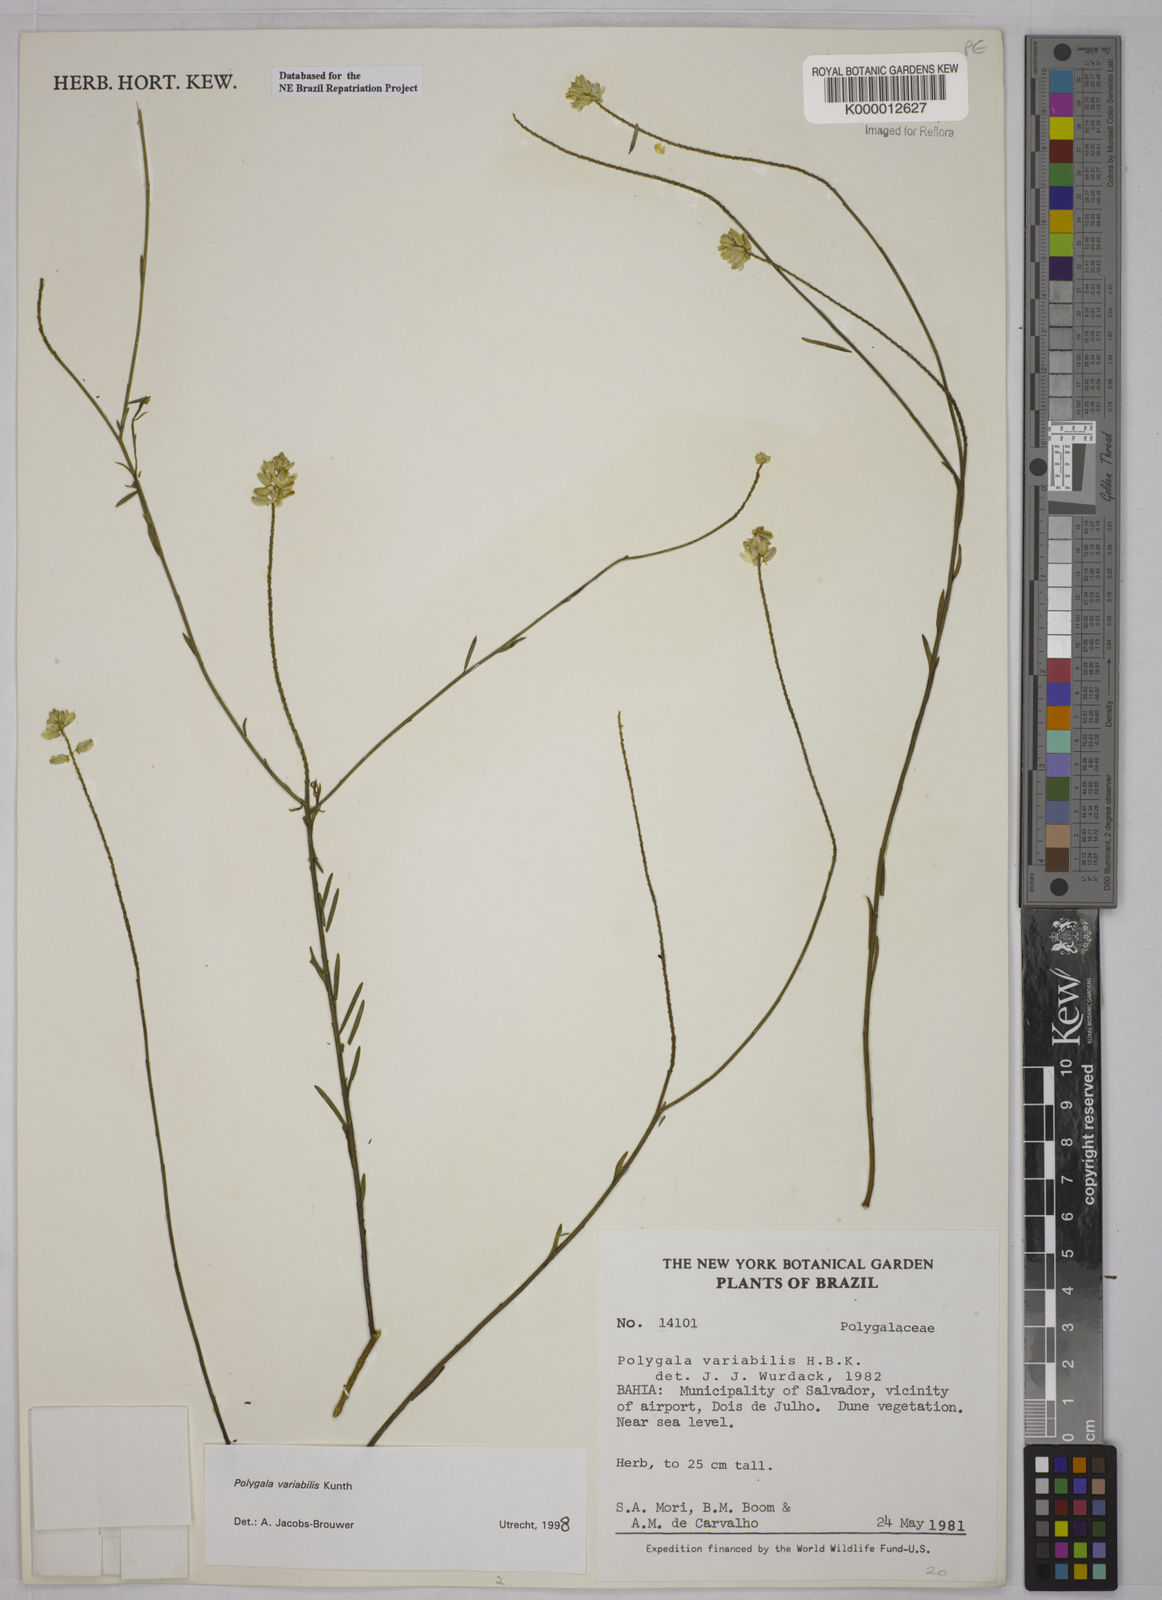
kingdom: Plantae
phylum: Tracheophyta
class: Magnoliopsida
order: Fabales
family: Polygalaceae
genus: Polygala
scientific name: Polygala trichosperma
